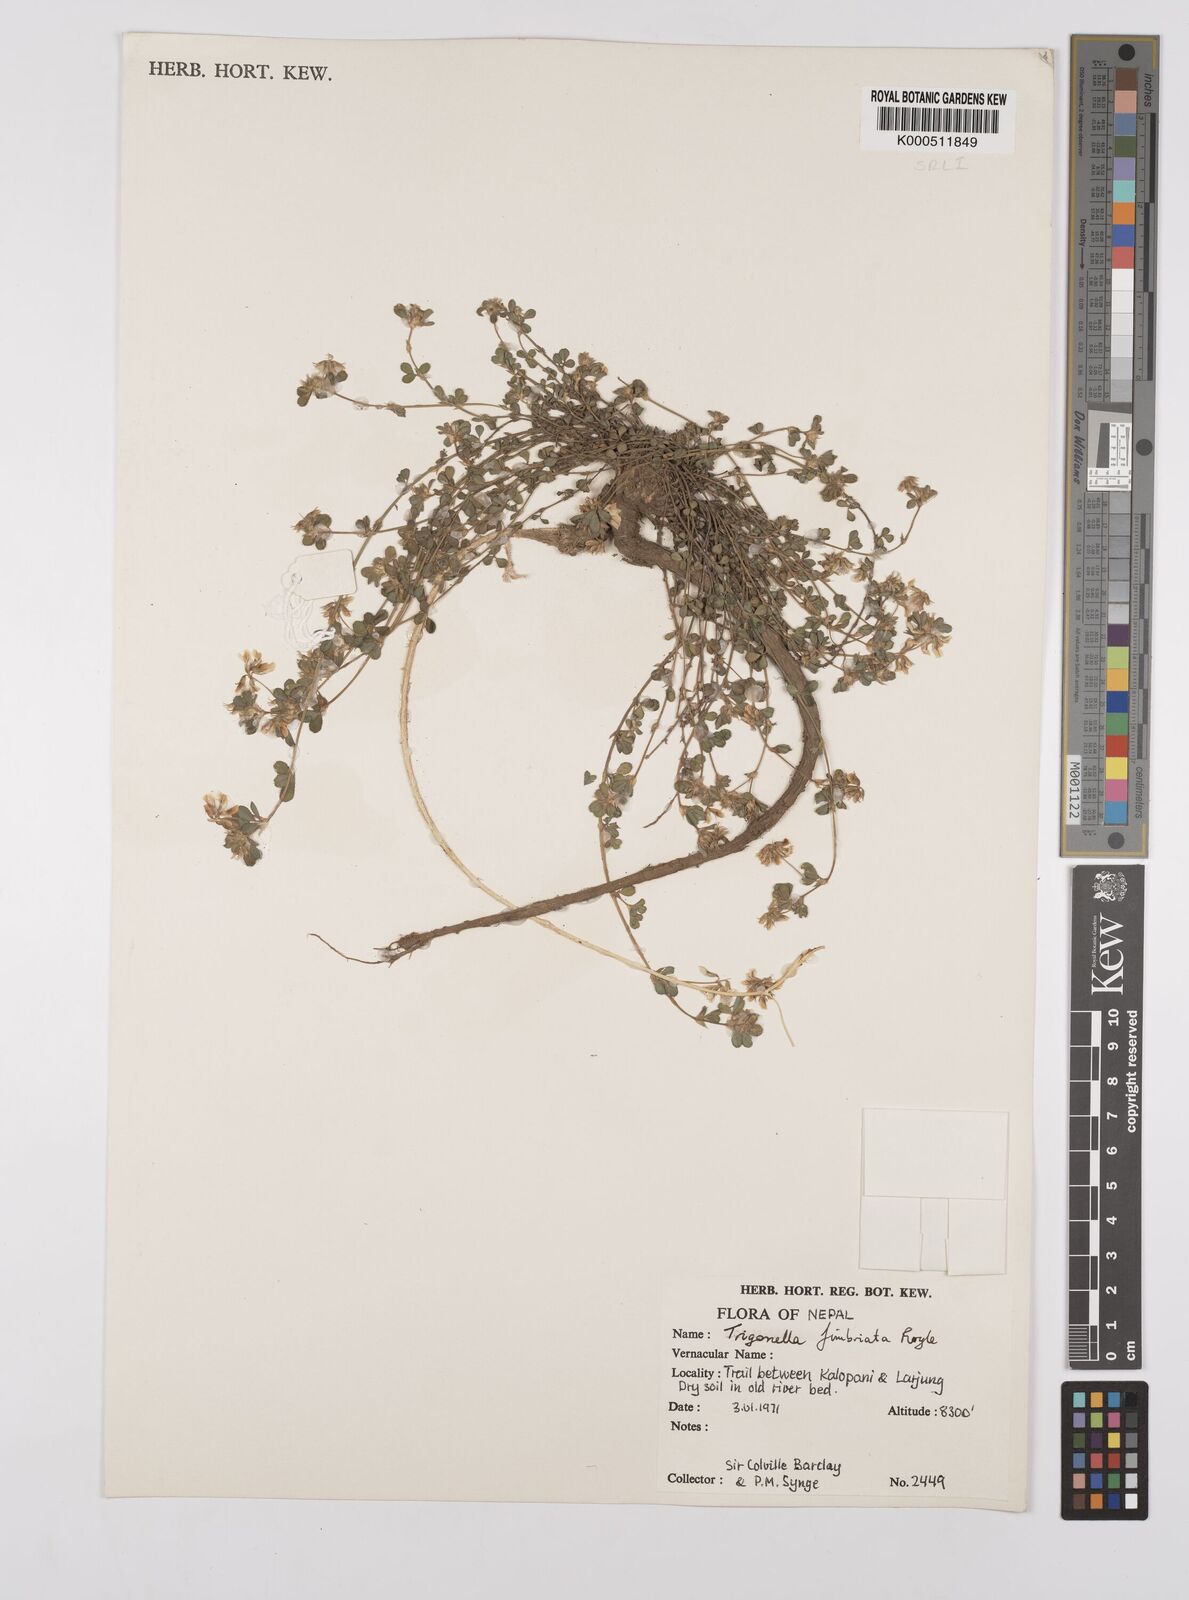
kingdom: Plantae
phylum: Tracheophyta
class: Magnoliopsida
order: Fabales
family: Fabaceae
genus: Trigonella
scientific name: Trigonella emodi
